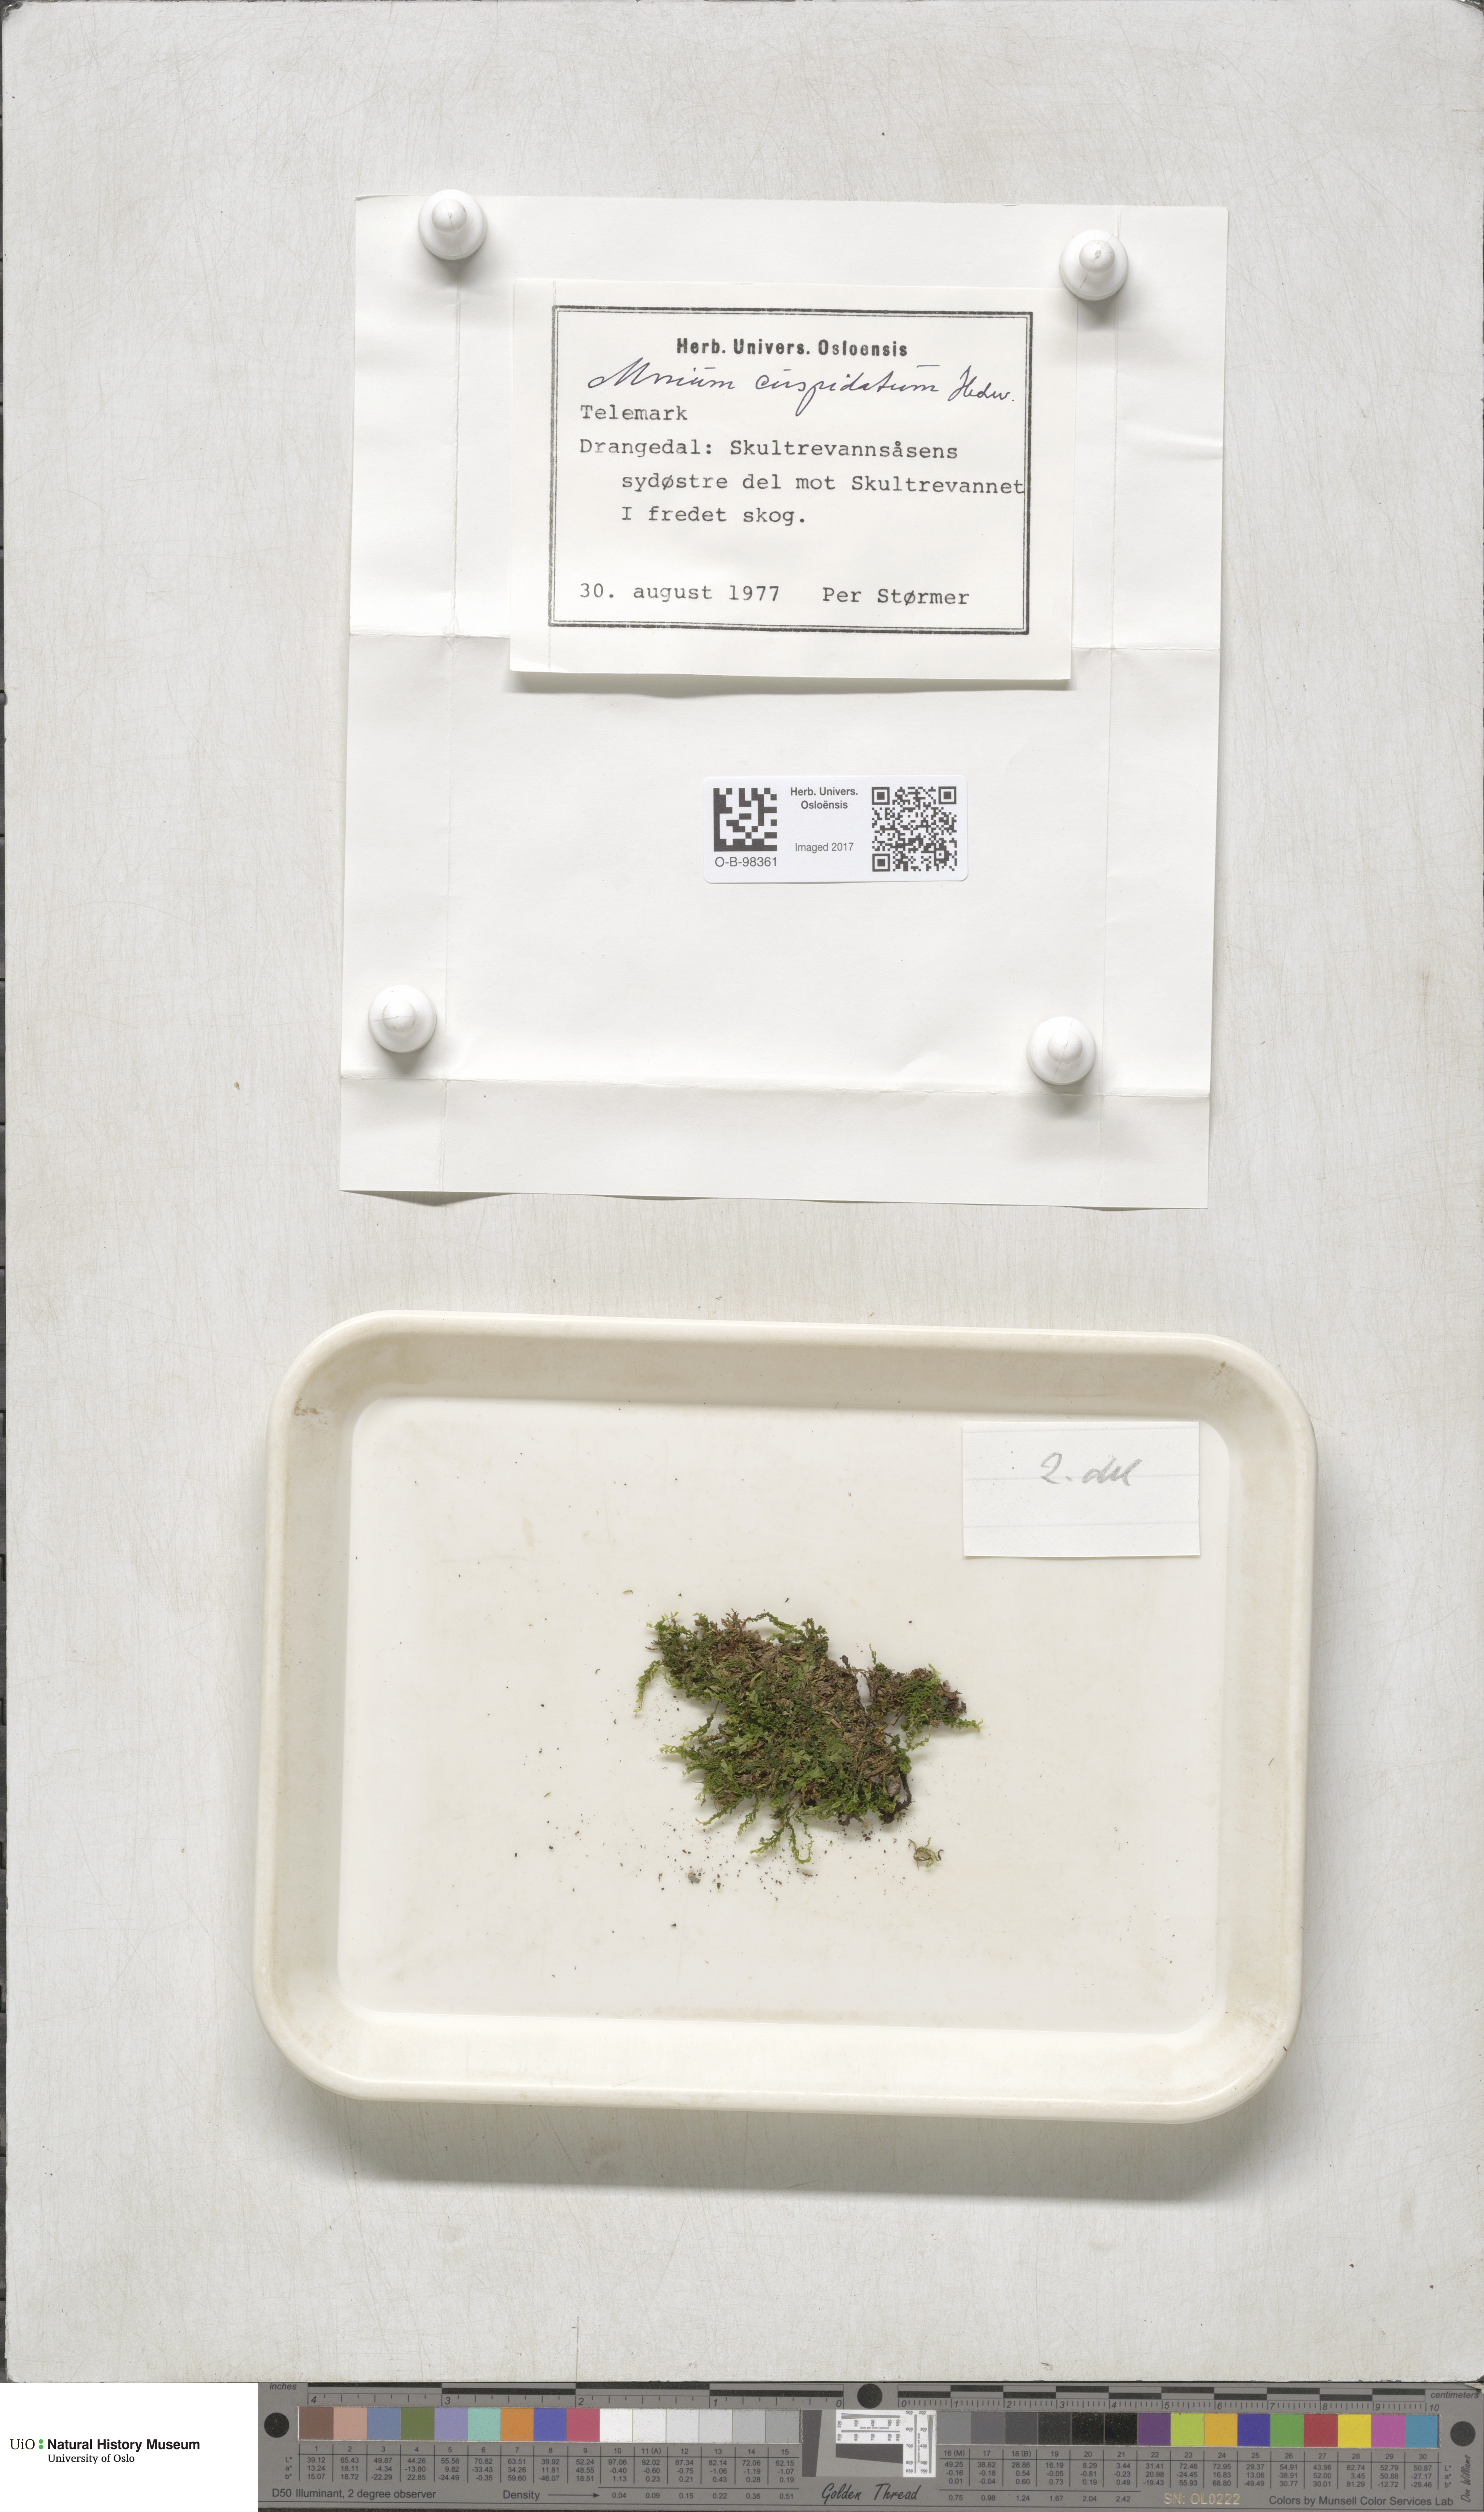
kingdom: Plantae
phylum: Bryophyta
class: Bryopsida
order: Bryales
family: Mniaceae
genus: Plagiomnium
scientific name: Plagiomnium cuspidatum
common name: Woodsy leafy moss
